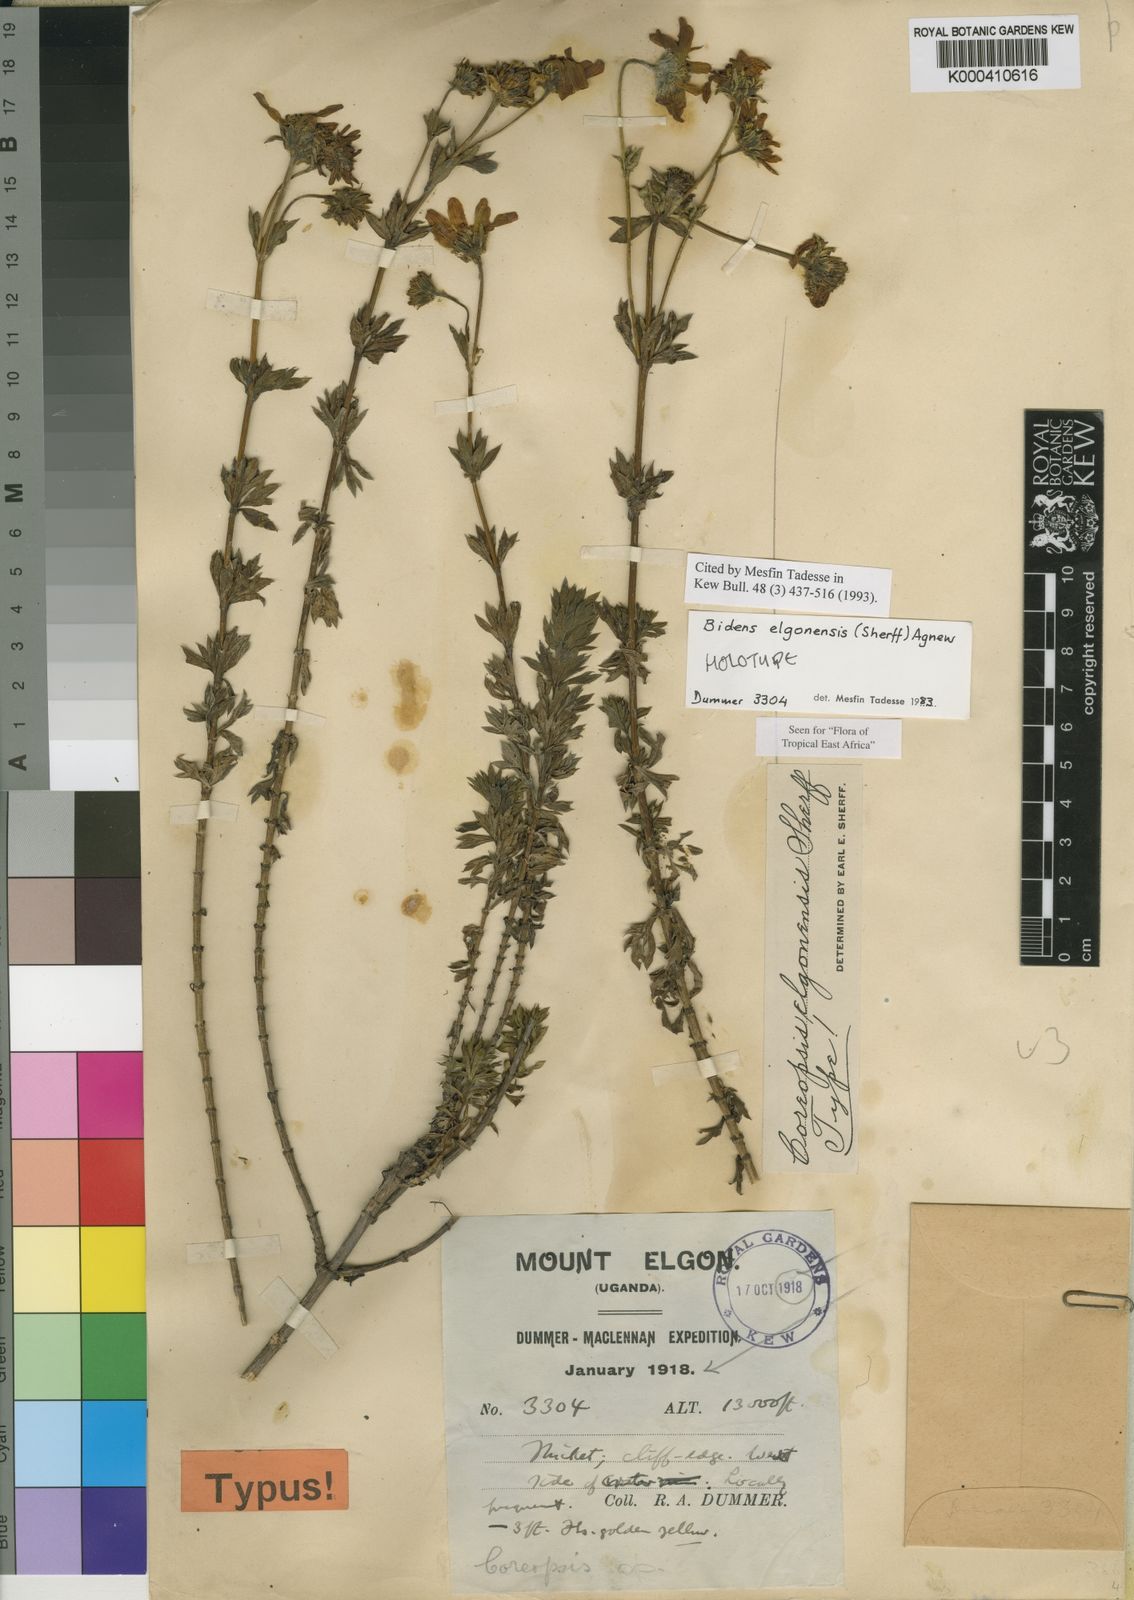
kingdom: Plantae
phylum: Tracheophyta
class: Magnoliopsida
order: Asterales
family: Asteraceae
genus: Bidens
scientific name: Bidens elgonensis
